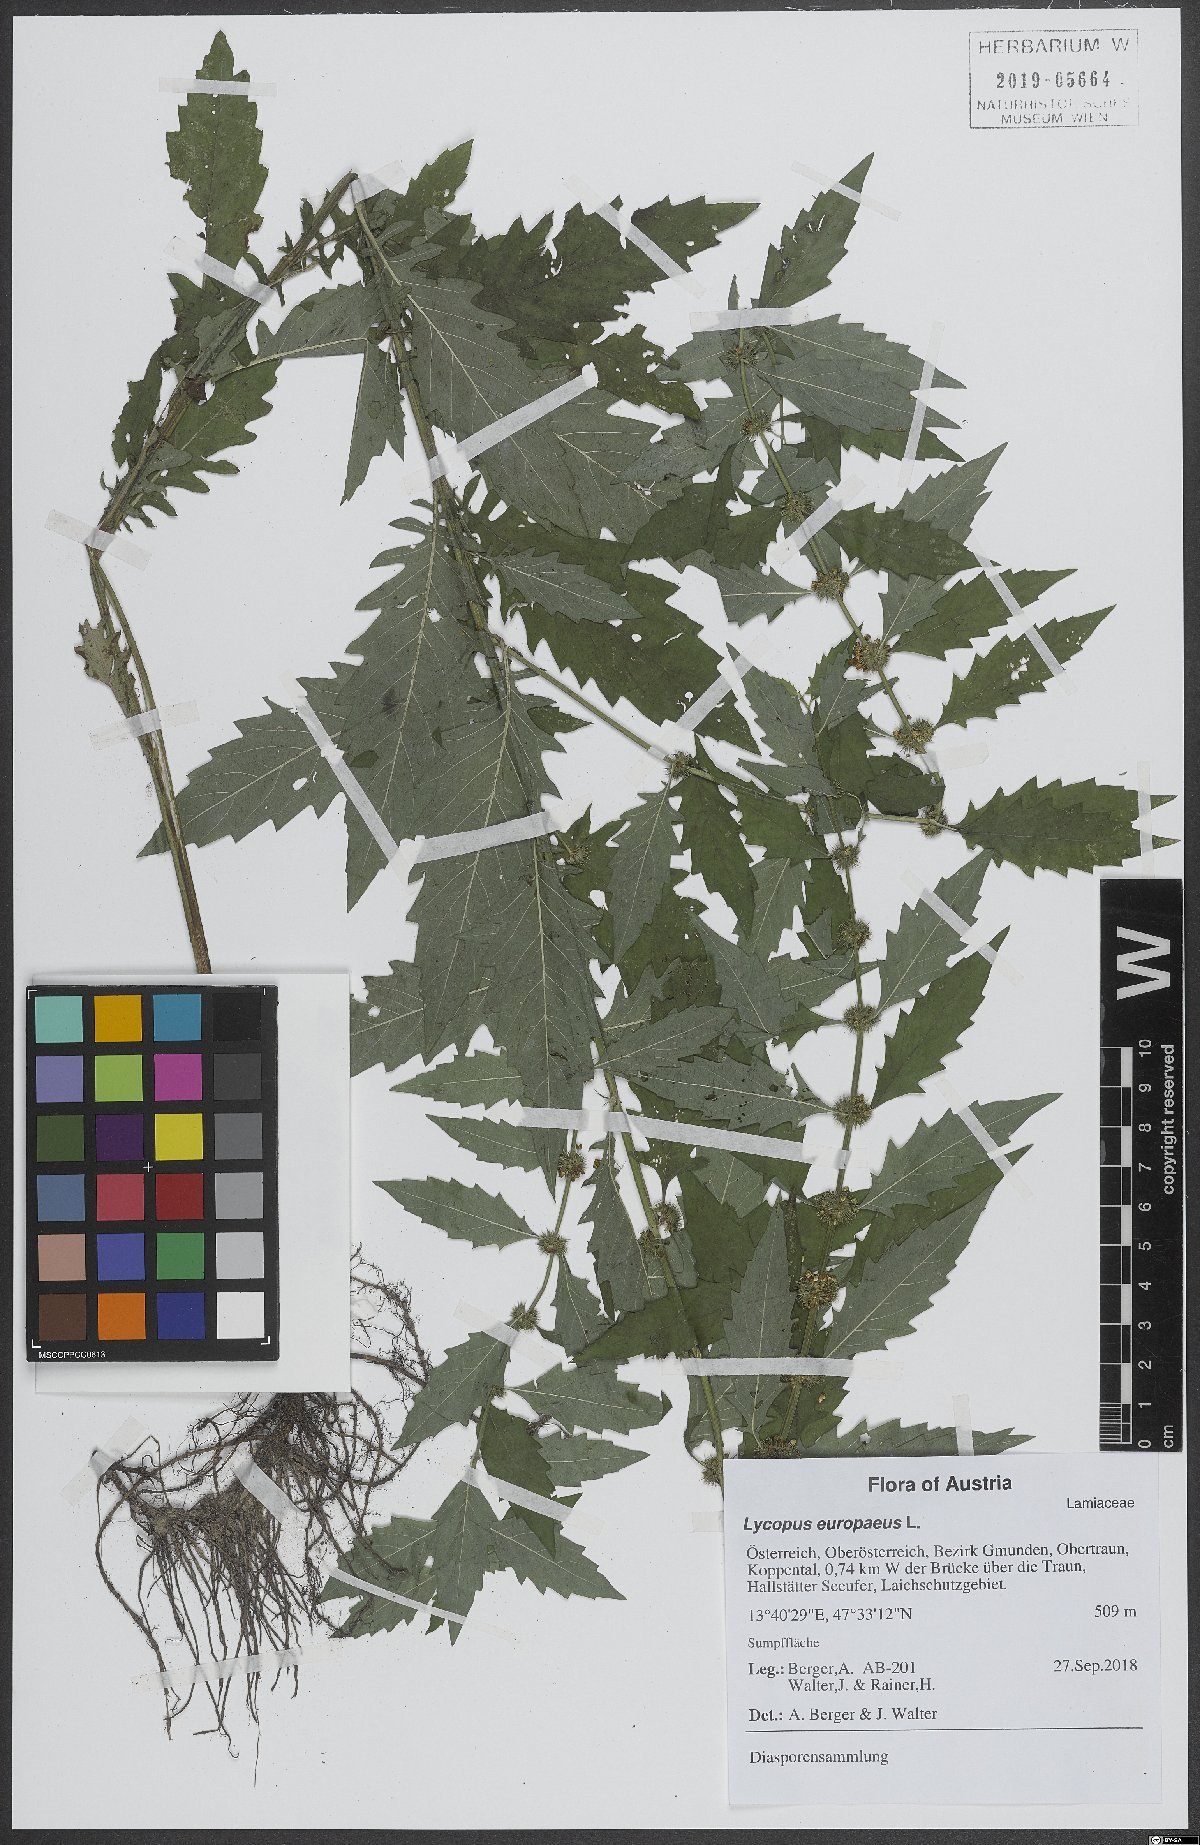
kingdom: Plantae
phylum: Tracheophyta
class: Magnoliopsida
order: Lamiales
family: Lamiaceae
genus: Lycopus
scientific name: Lycopus europaeus
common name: European bugleweed
